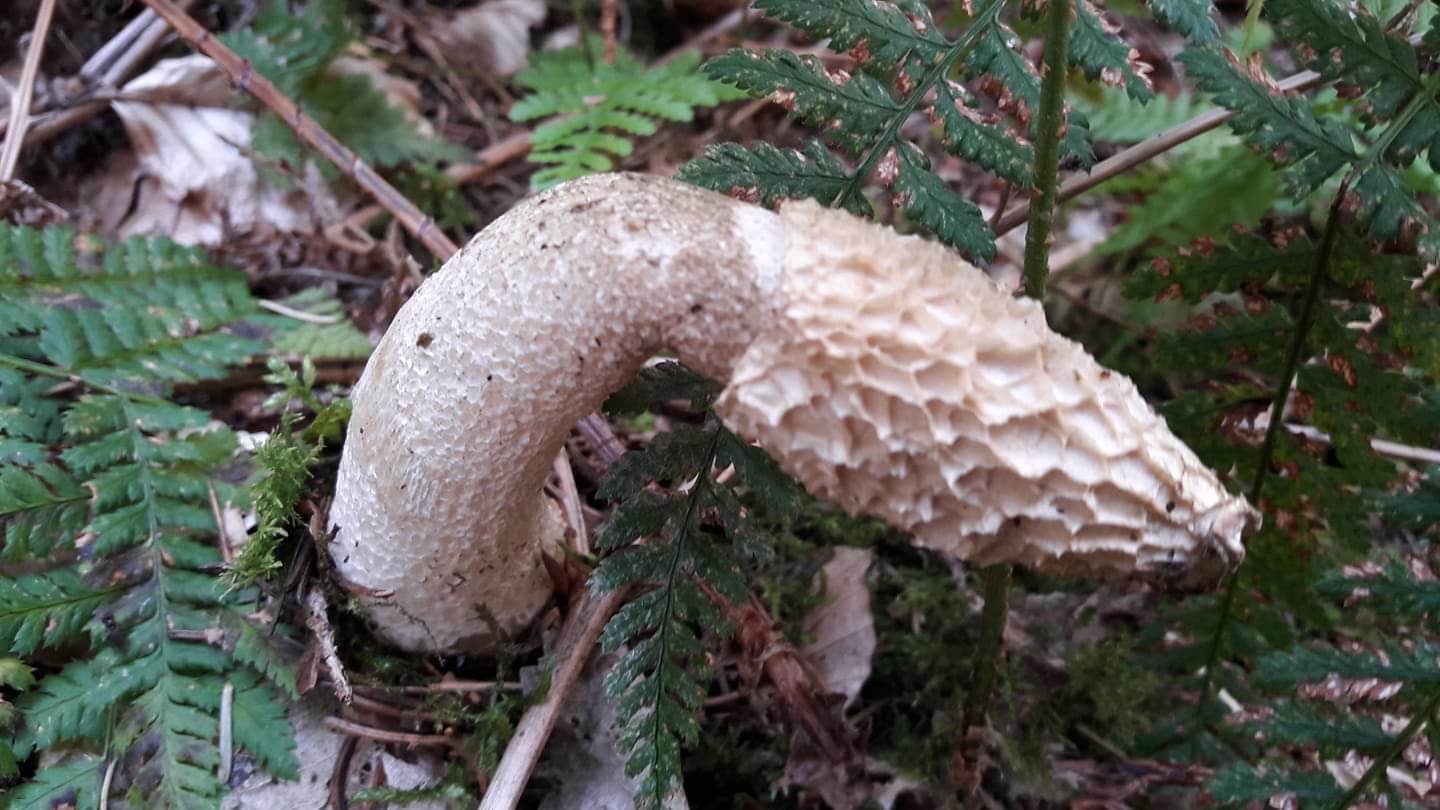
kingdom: Fungi
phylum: Basidiomycota
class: Agaricomycetes
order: Phallales
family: Phallaceae
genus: Phallus
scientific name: Phallus impudicus
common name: almindelig stinksvamp
